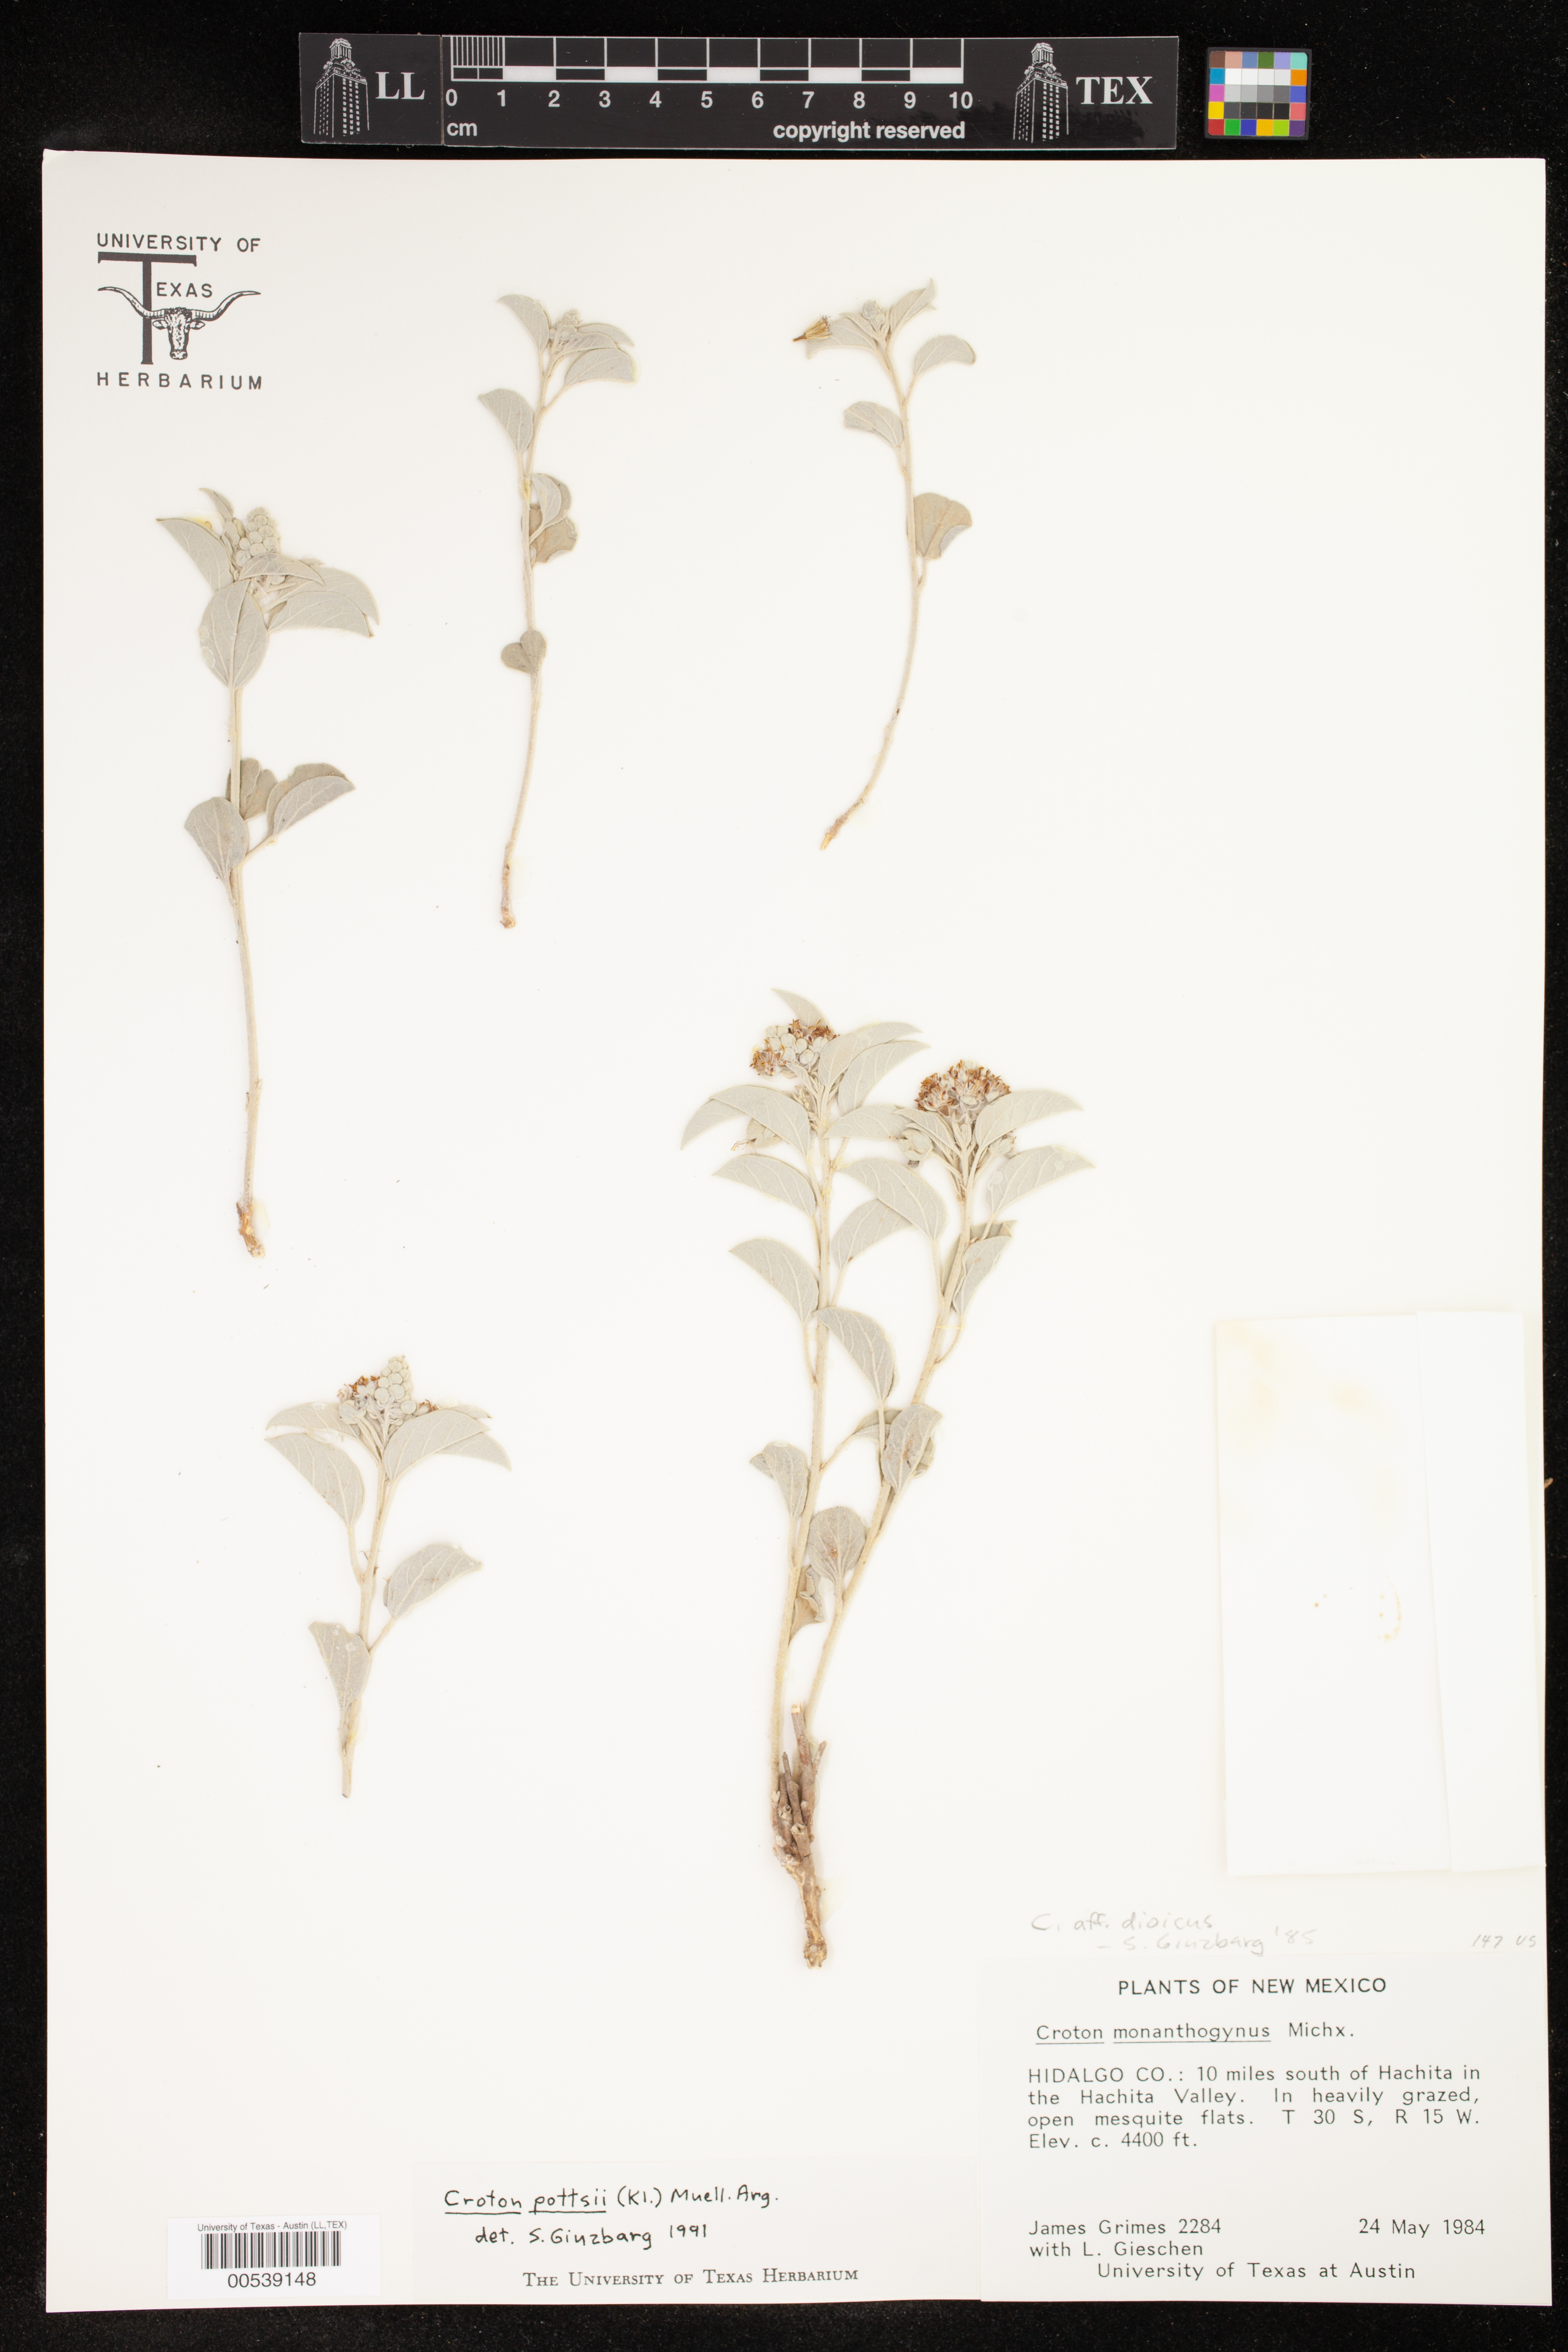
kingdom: Plantae
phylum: Tracheophyta
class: Magnoliopsida
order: Malpighiales
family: Euphorbiaceae
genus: Croton
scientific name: Croton dioicus
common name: Grassland croton
